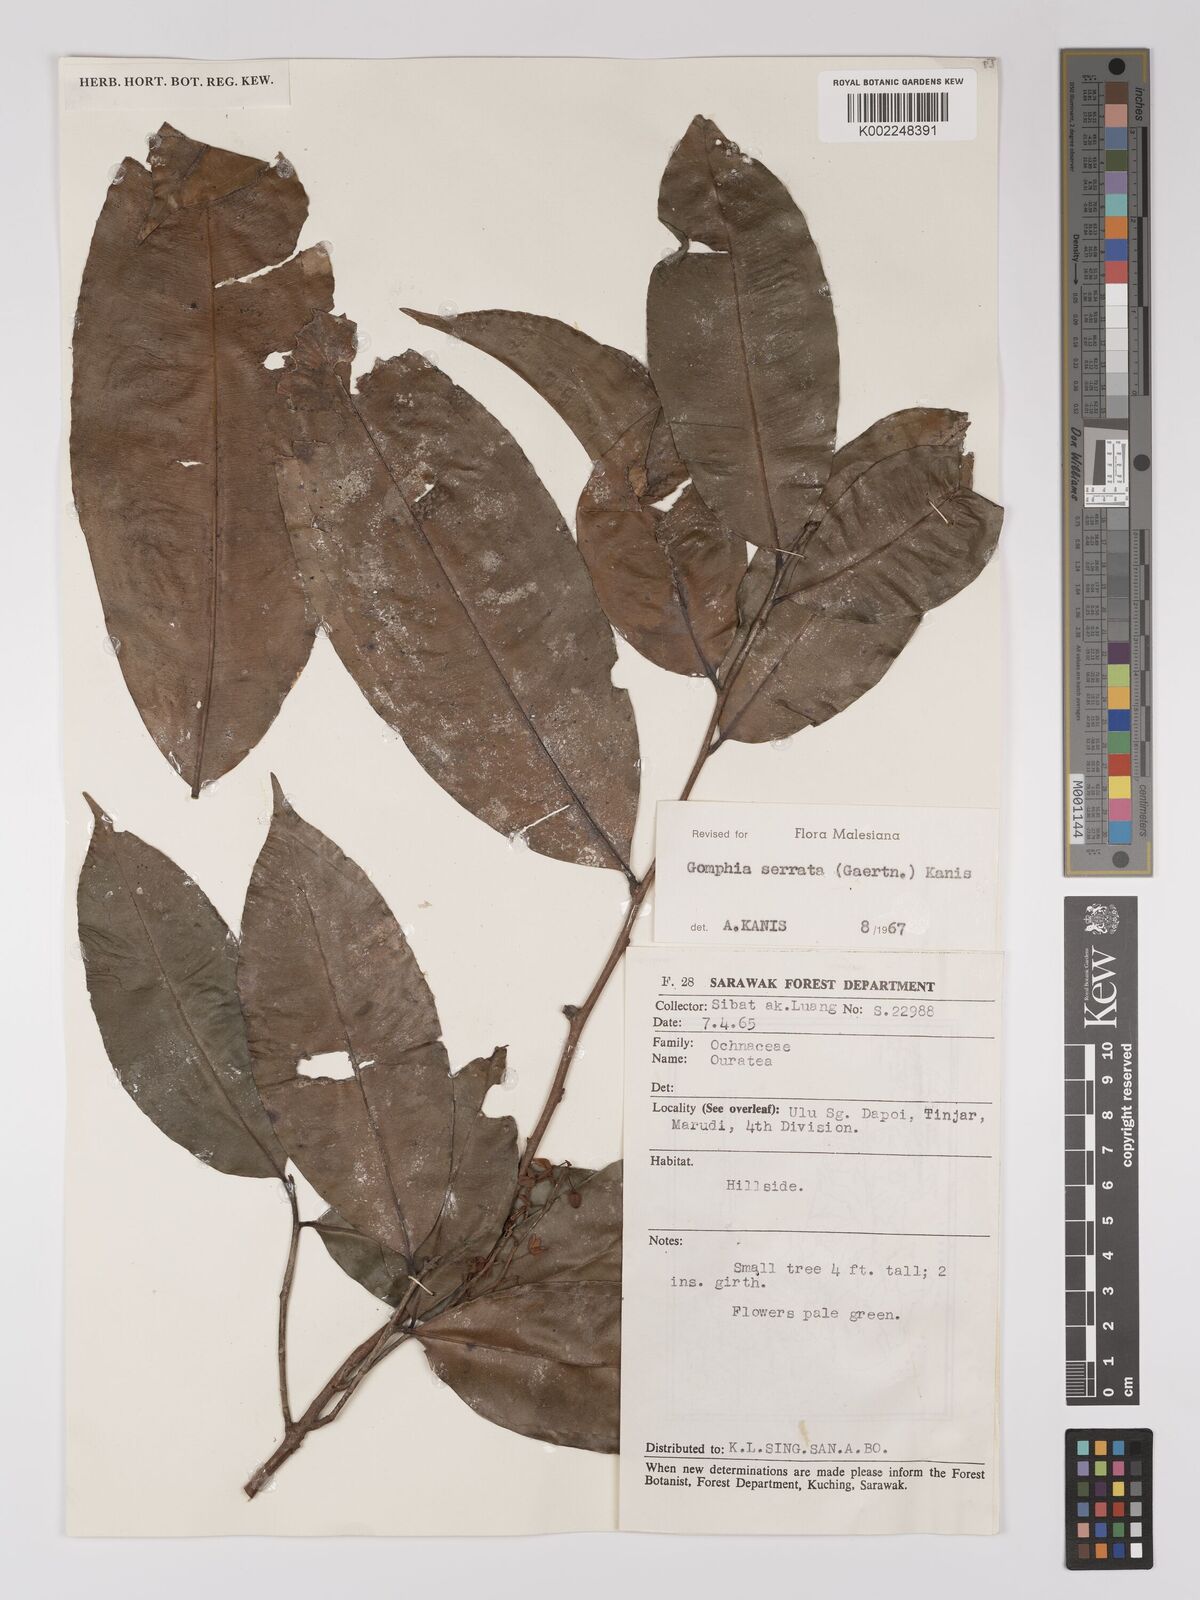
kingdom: Plantae
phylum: Tracheophyta
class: Magnoliopsida
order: Malpighiales
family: Ochnaceae
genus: Gomphia
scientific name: Gomphia serrata
